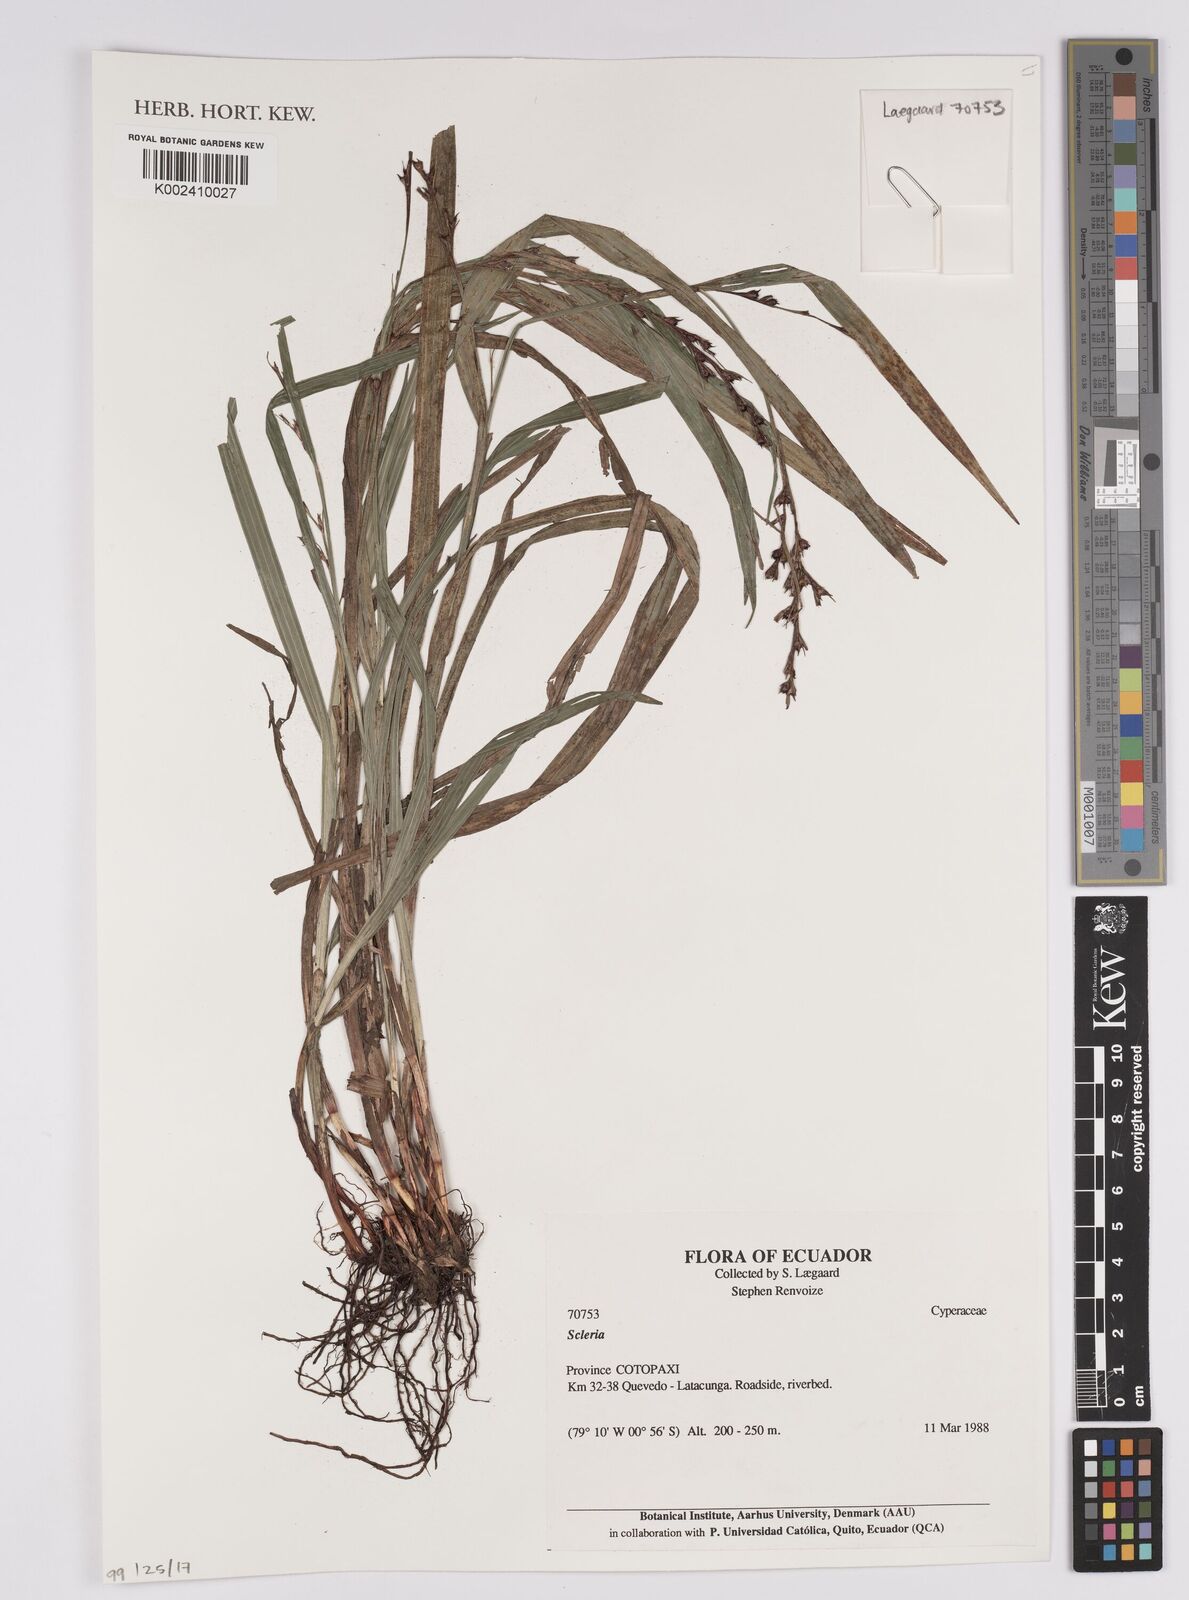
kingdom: Plantae
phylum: Tracheophyta
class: Liliopsida
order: Poales
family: Cyperaceae
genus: Scleria
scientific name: Scleria
